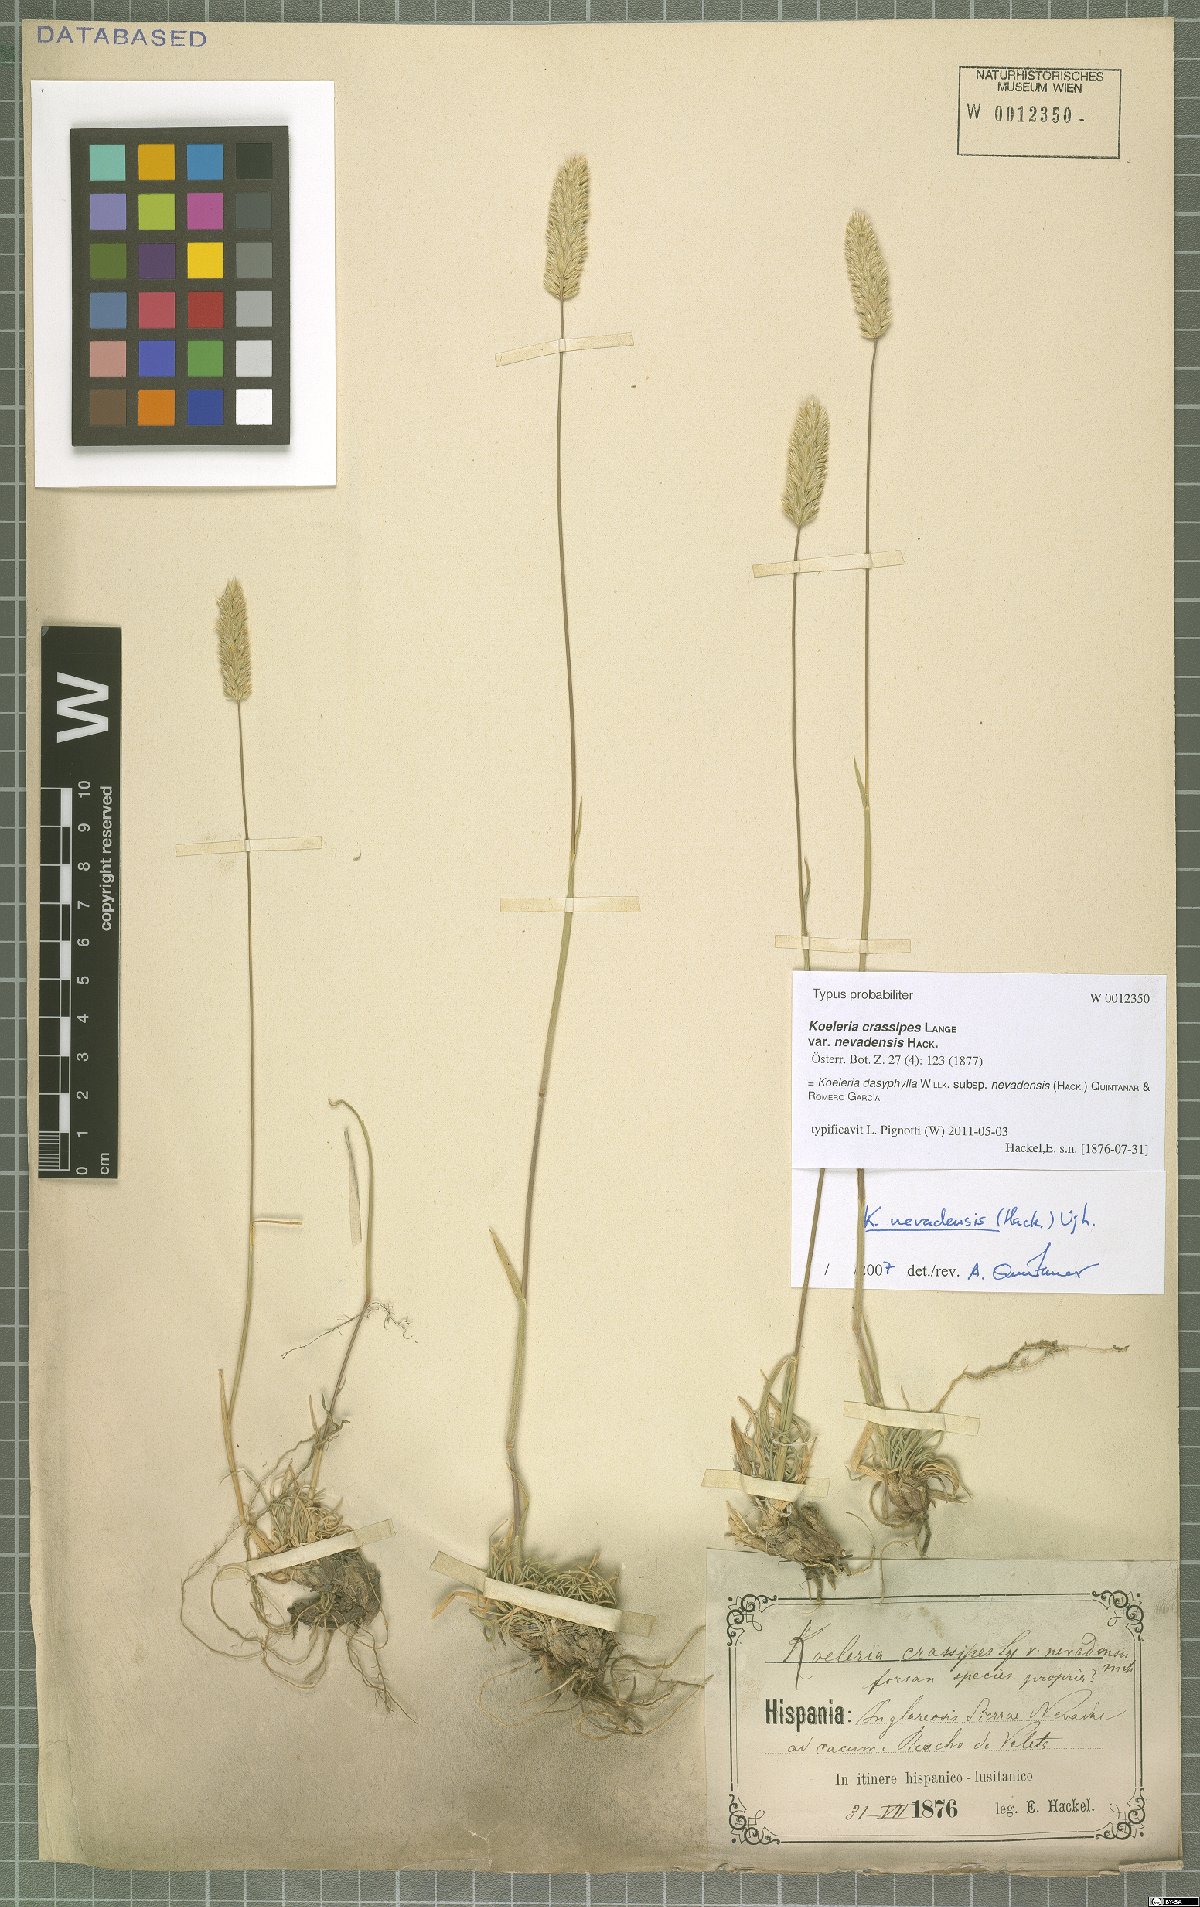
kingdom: Plantae
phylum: Tracheophyta
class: Liliopsida
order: Poales
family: Poaceae
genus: Koeleria
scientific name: Koeleria crassipes
